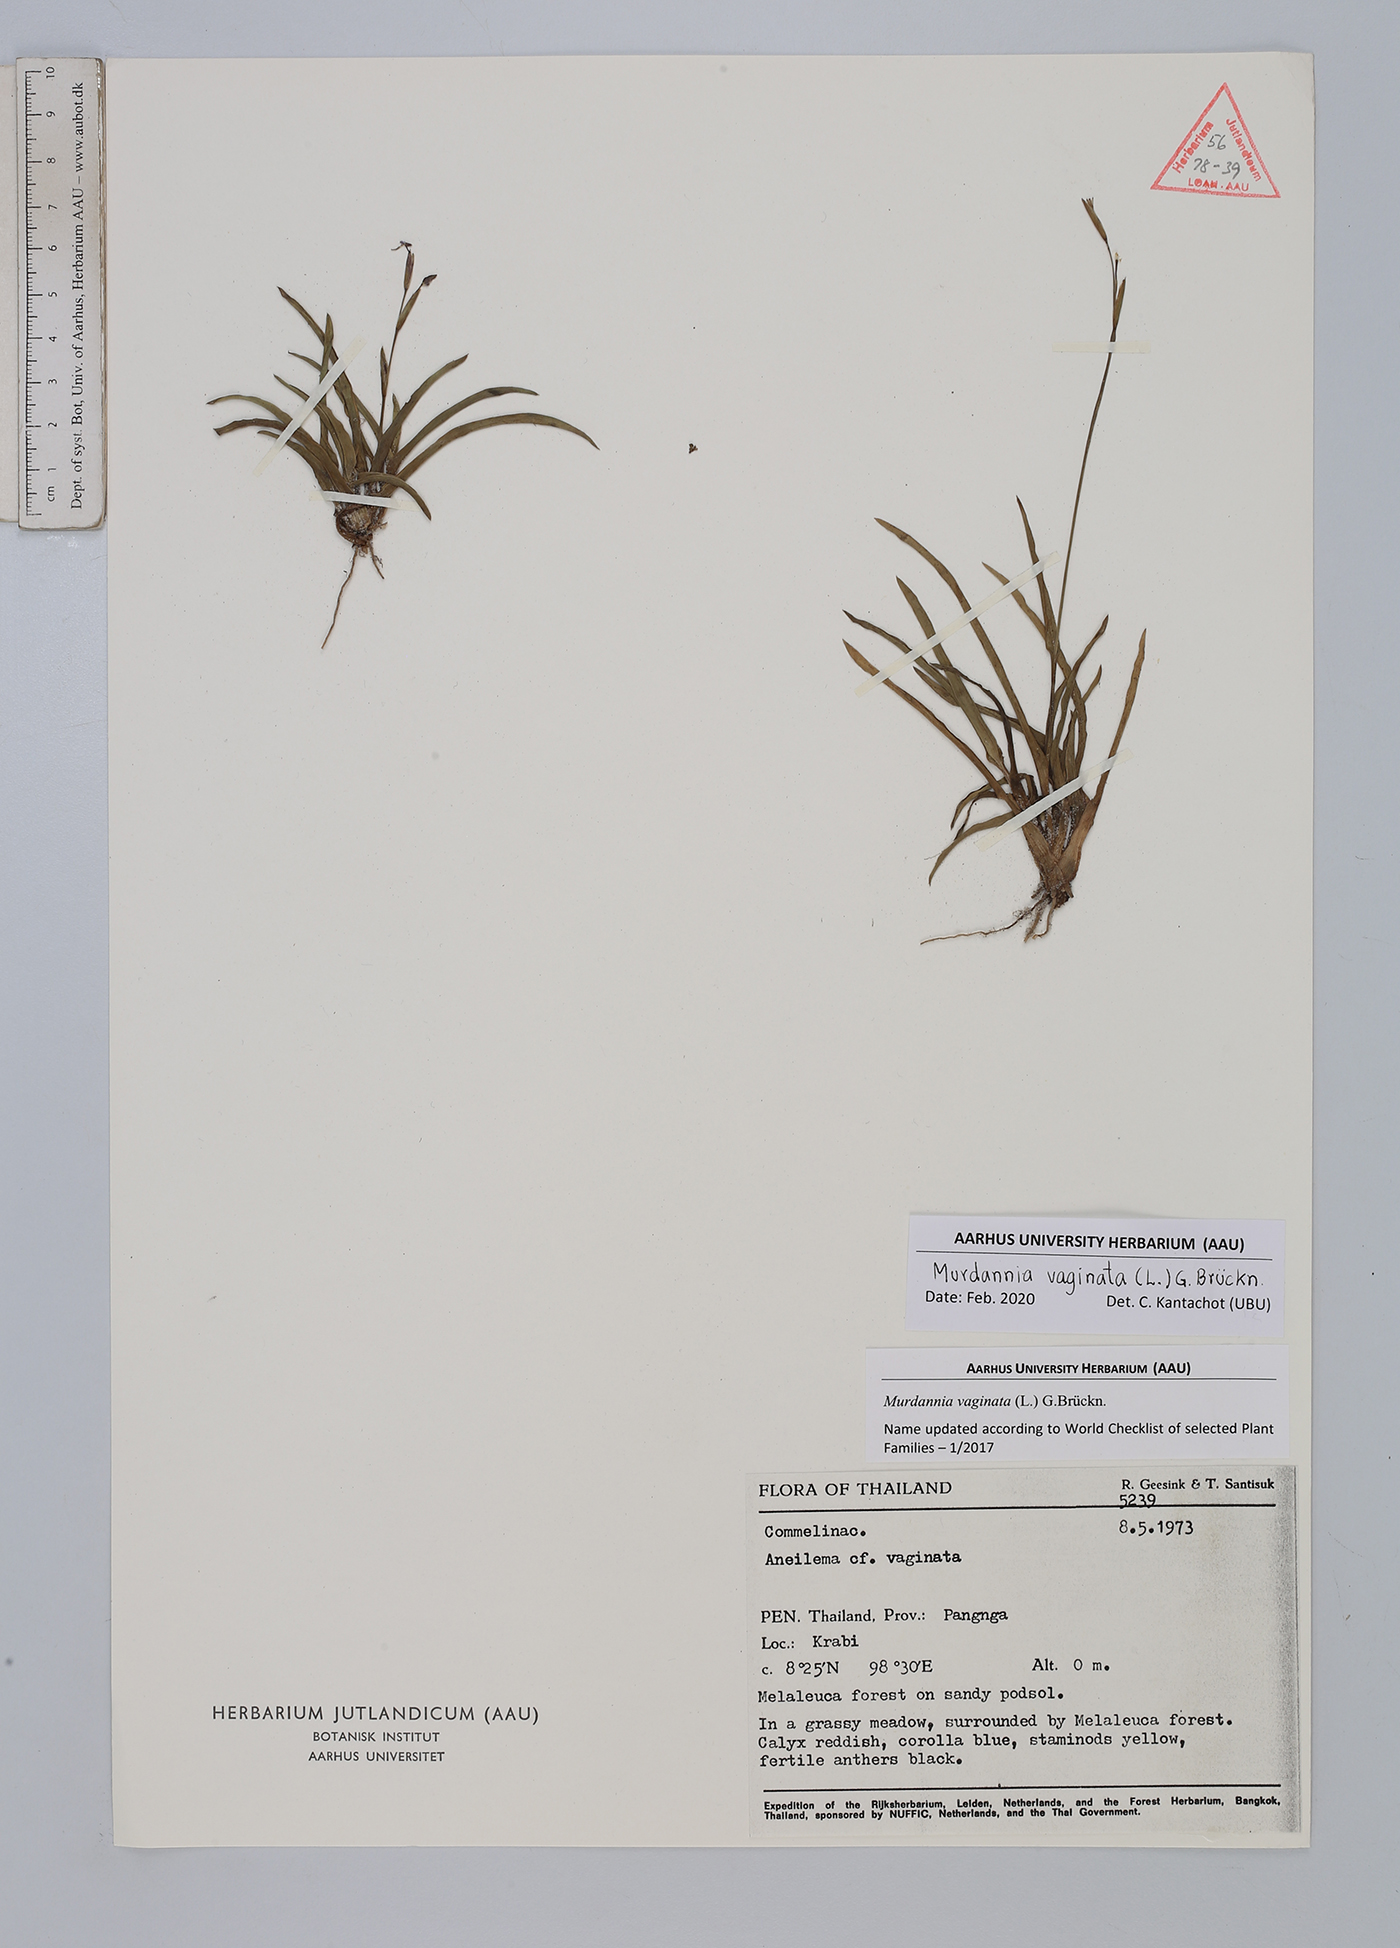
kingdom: Plantae
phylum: Tracheophyta
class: Liliopsida
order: Commelinales
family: Commelinaceae
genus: Murdannia
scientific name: Murdannia vaginata
